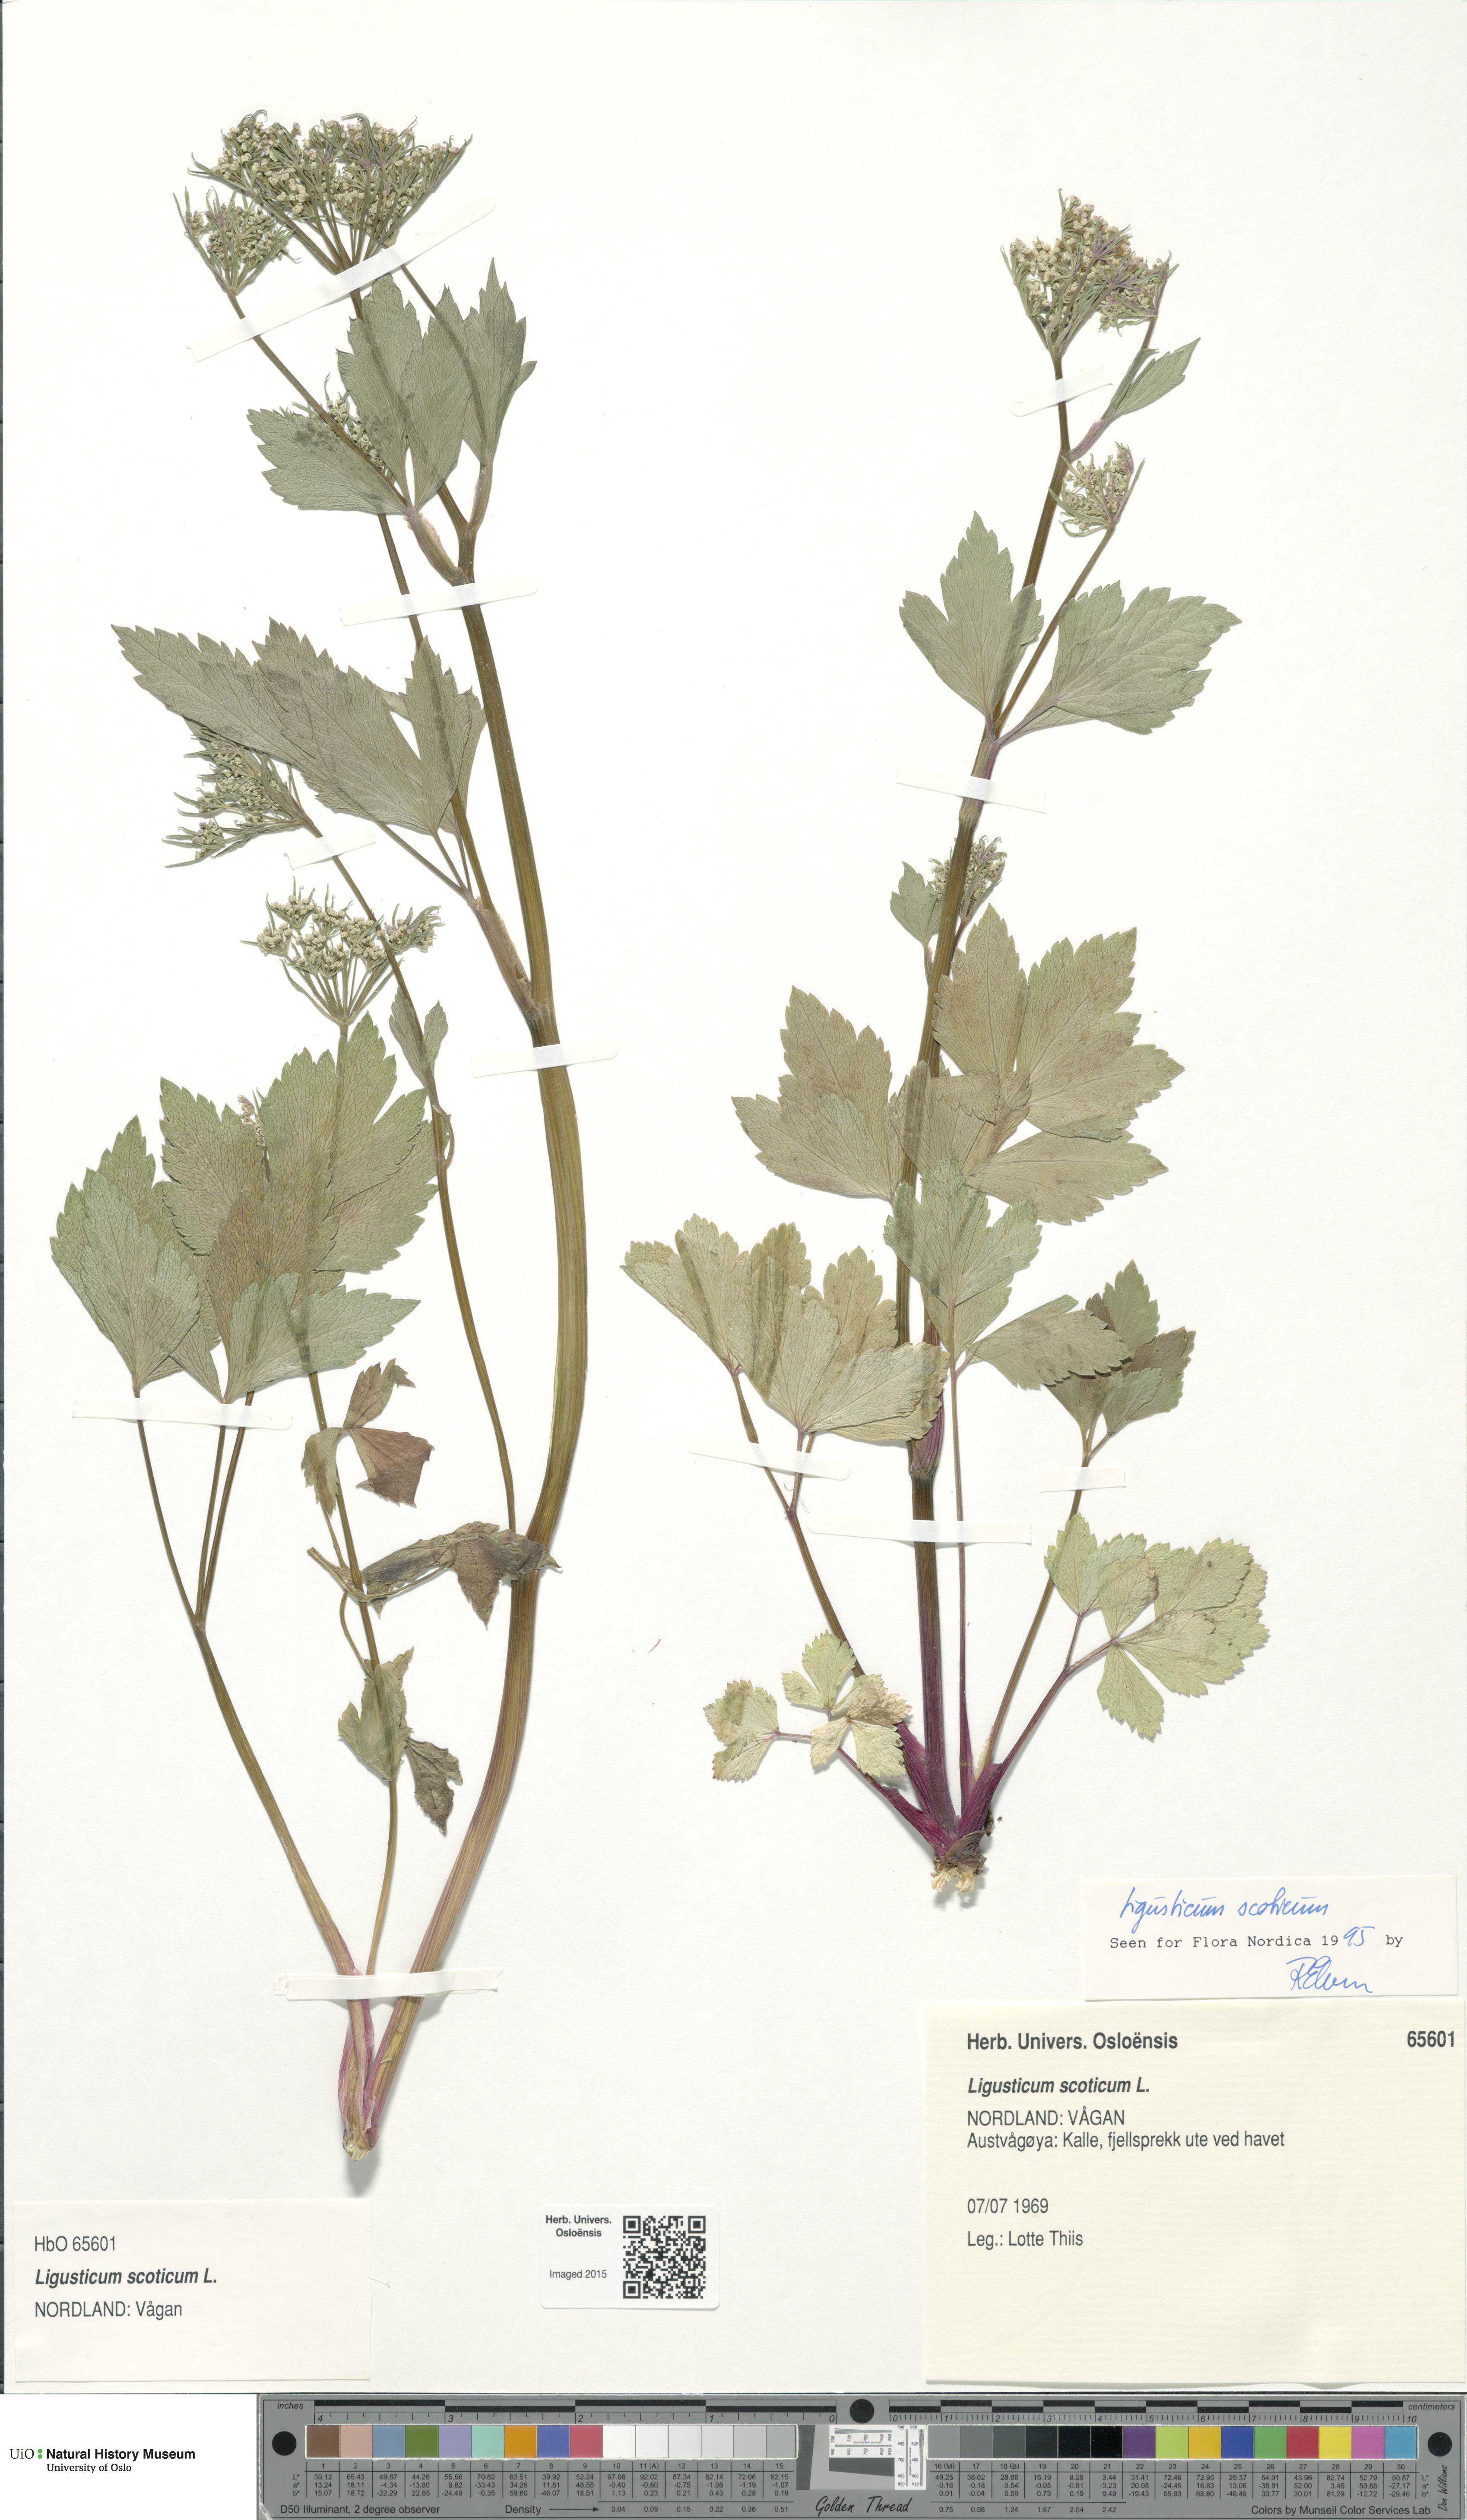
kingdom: Plantae
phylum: Tracheophyta
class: Magnoliopsida
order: Apiales
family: Apiaceae
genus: Ligusticum
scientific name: Ligusticum scothicum
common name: Beach lovage
